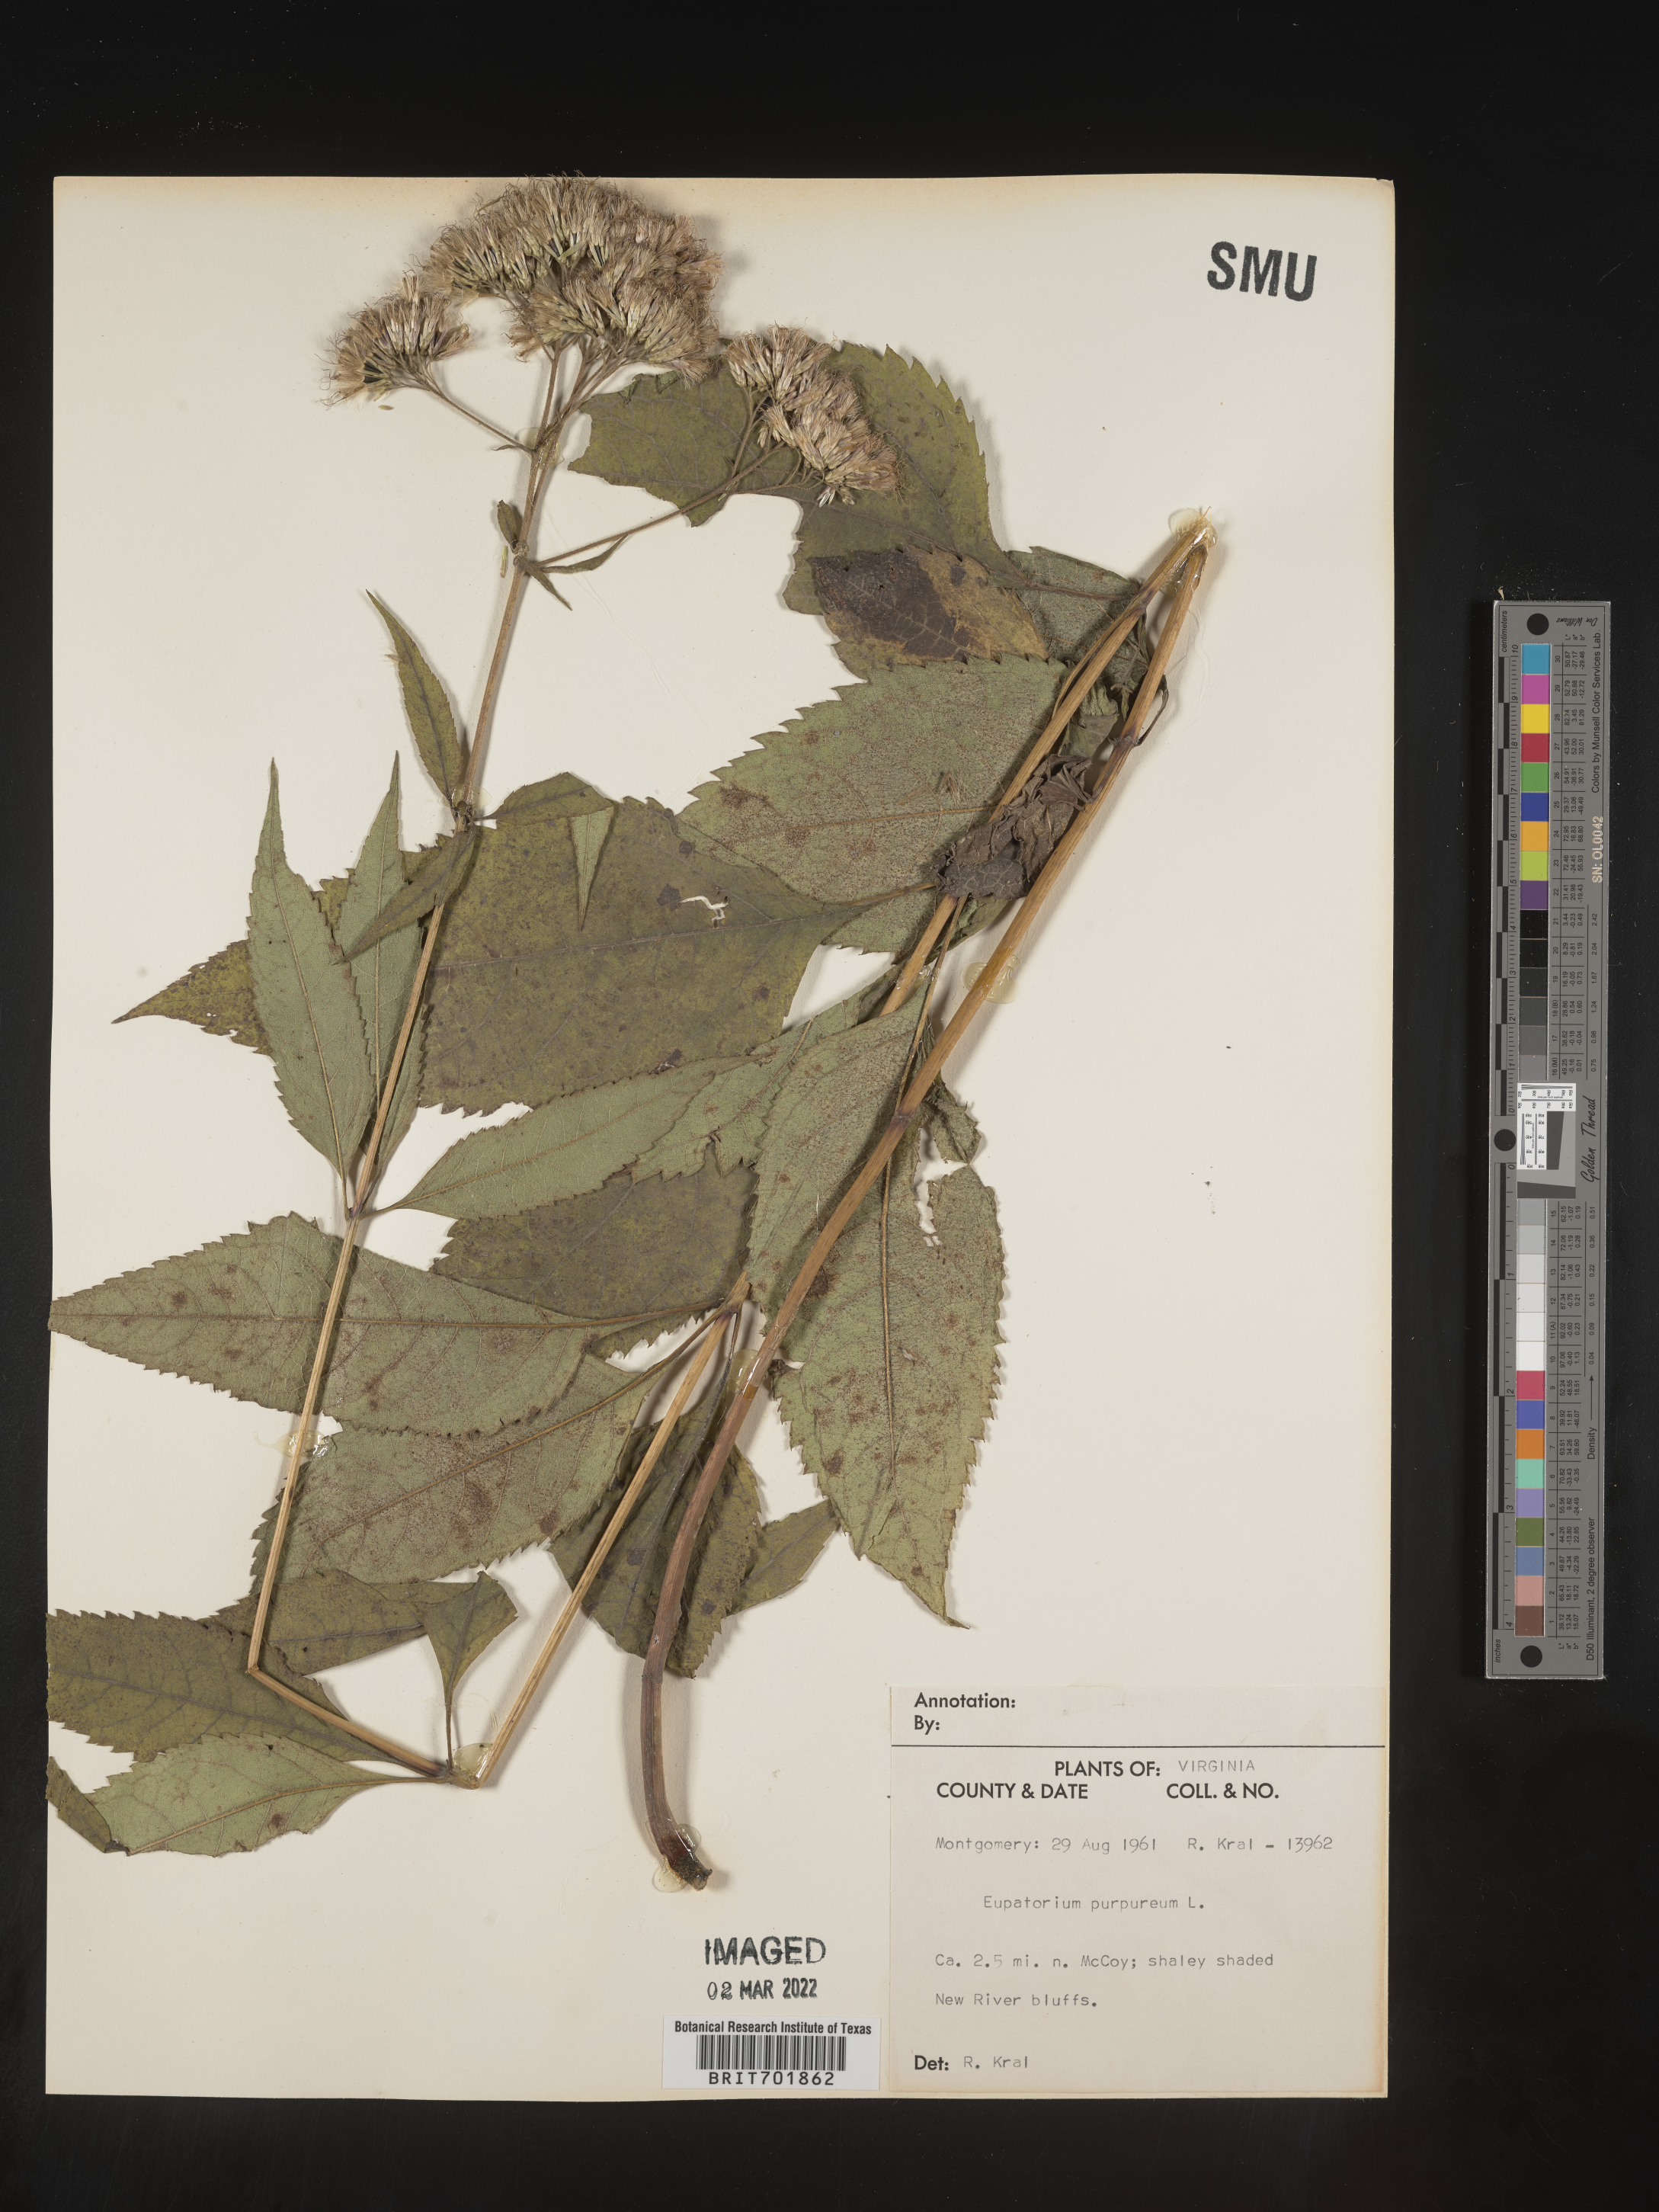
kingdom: Plantae
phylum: Tracheophyta
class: Magnoliopsida
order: Asterales
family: Asteraceae
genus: Eupatorium
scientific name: Eupatorium quaternum
